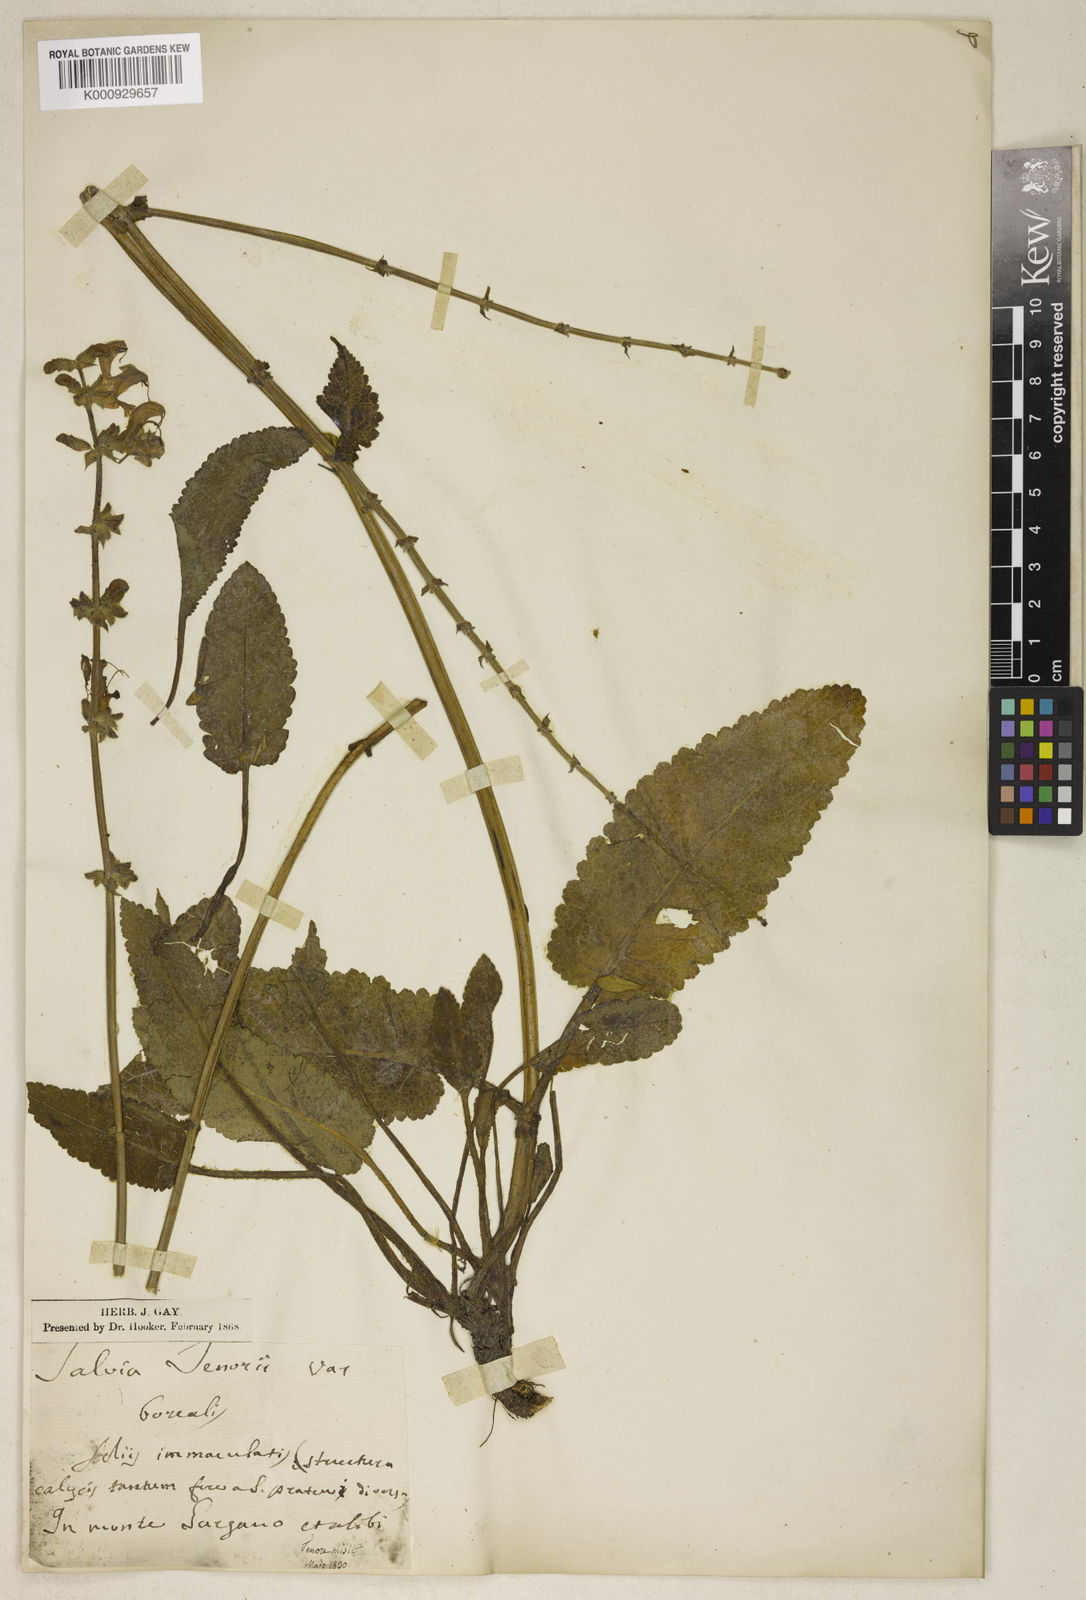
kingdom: Plantae
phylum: Tracheophyta
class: Magnoliopsida
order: Lamiales
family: Lamiaceae
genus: Salvia
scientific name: Salvia pratensis
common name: Meadow sage
